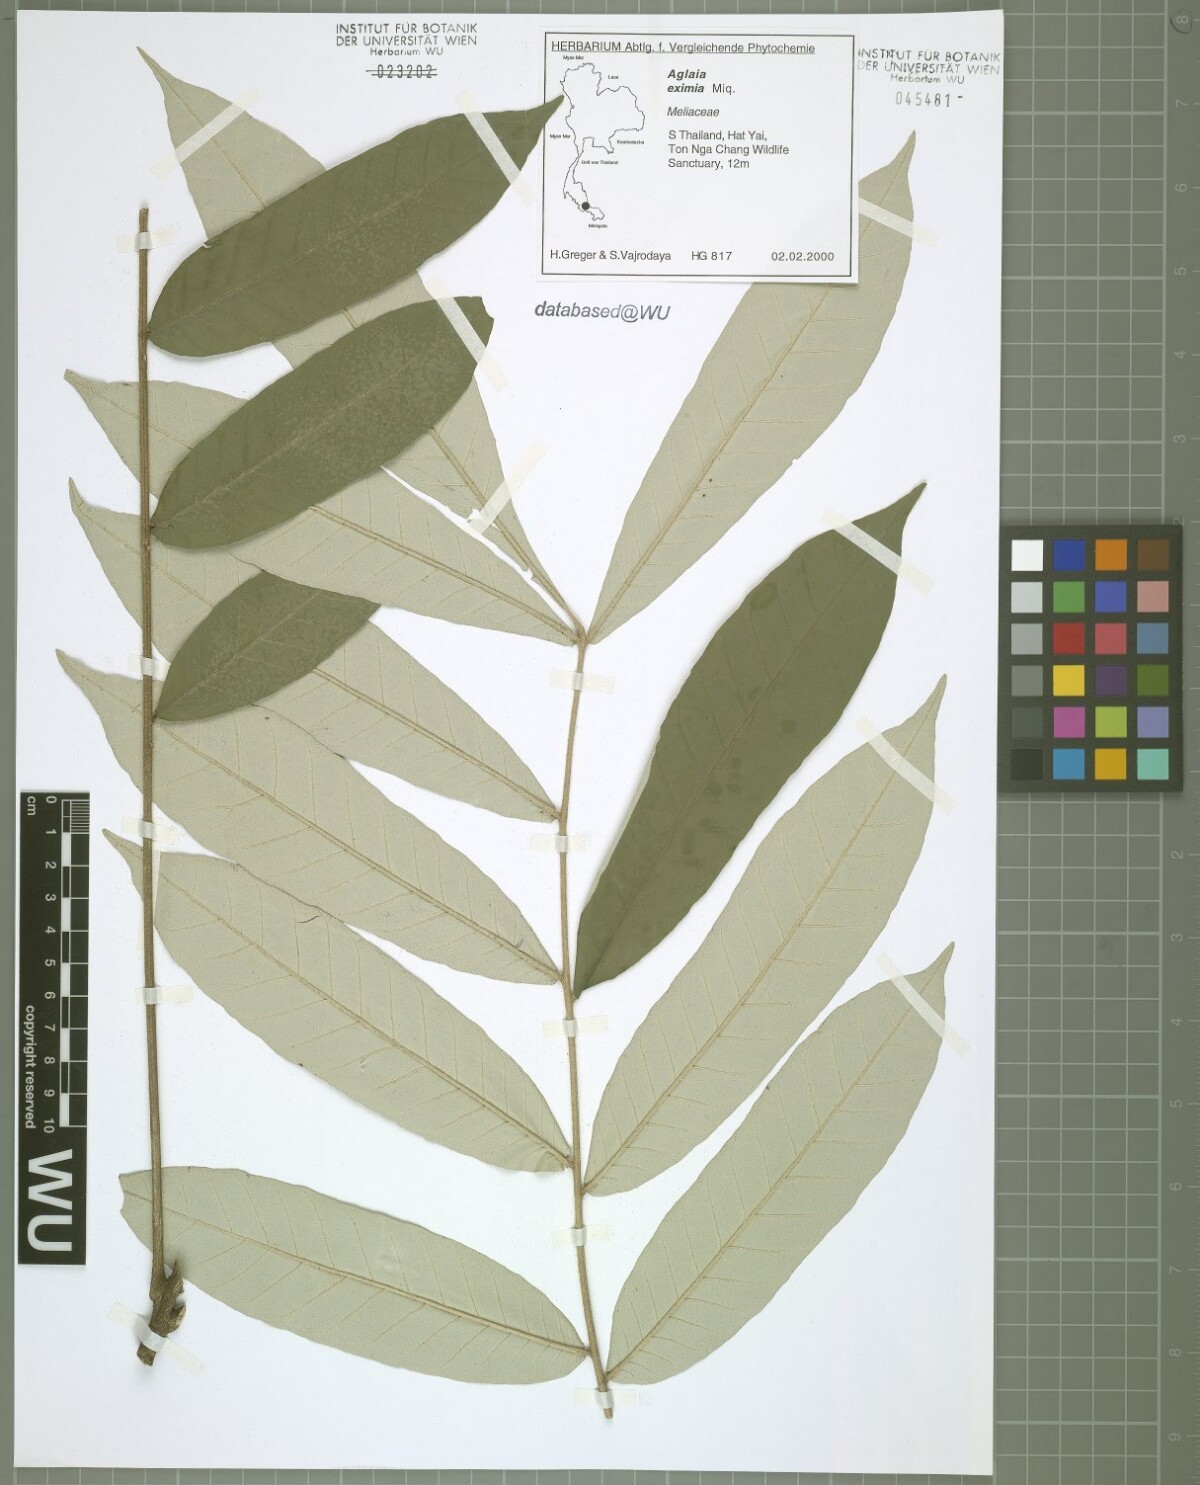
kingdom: Plantae
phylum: Tracheophyta
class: Magnoliopsida
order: Sapindales
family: Meliaceae
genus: Aglaia
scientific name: Aglaia eximia
